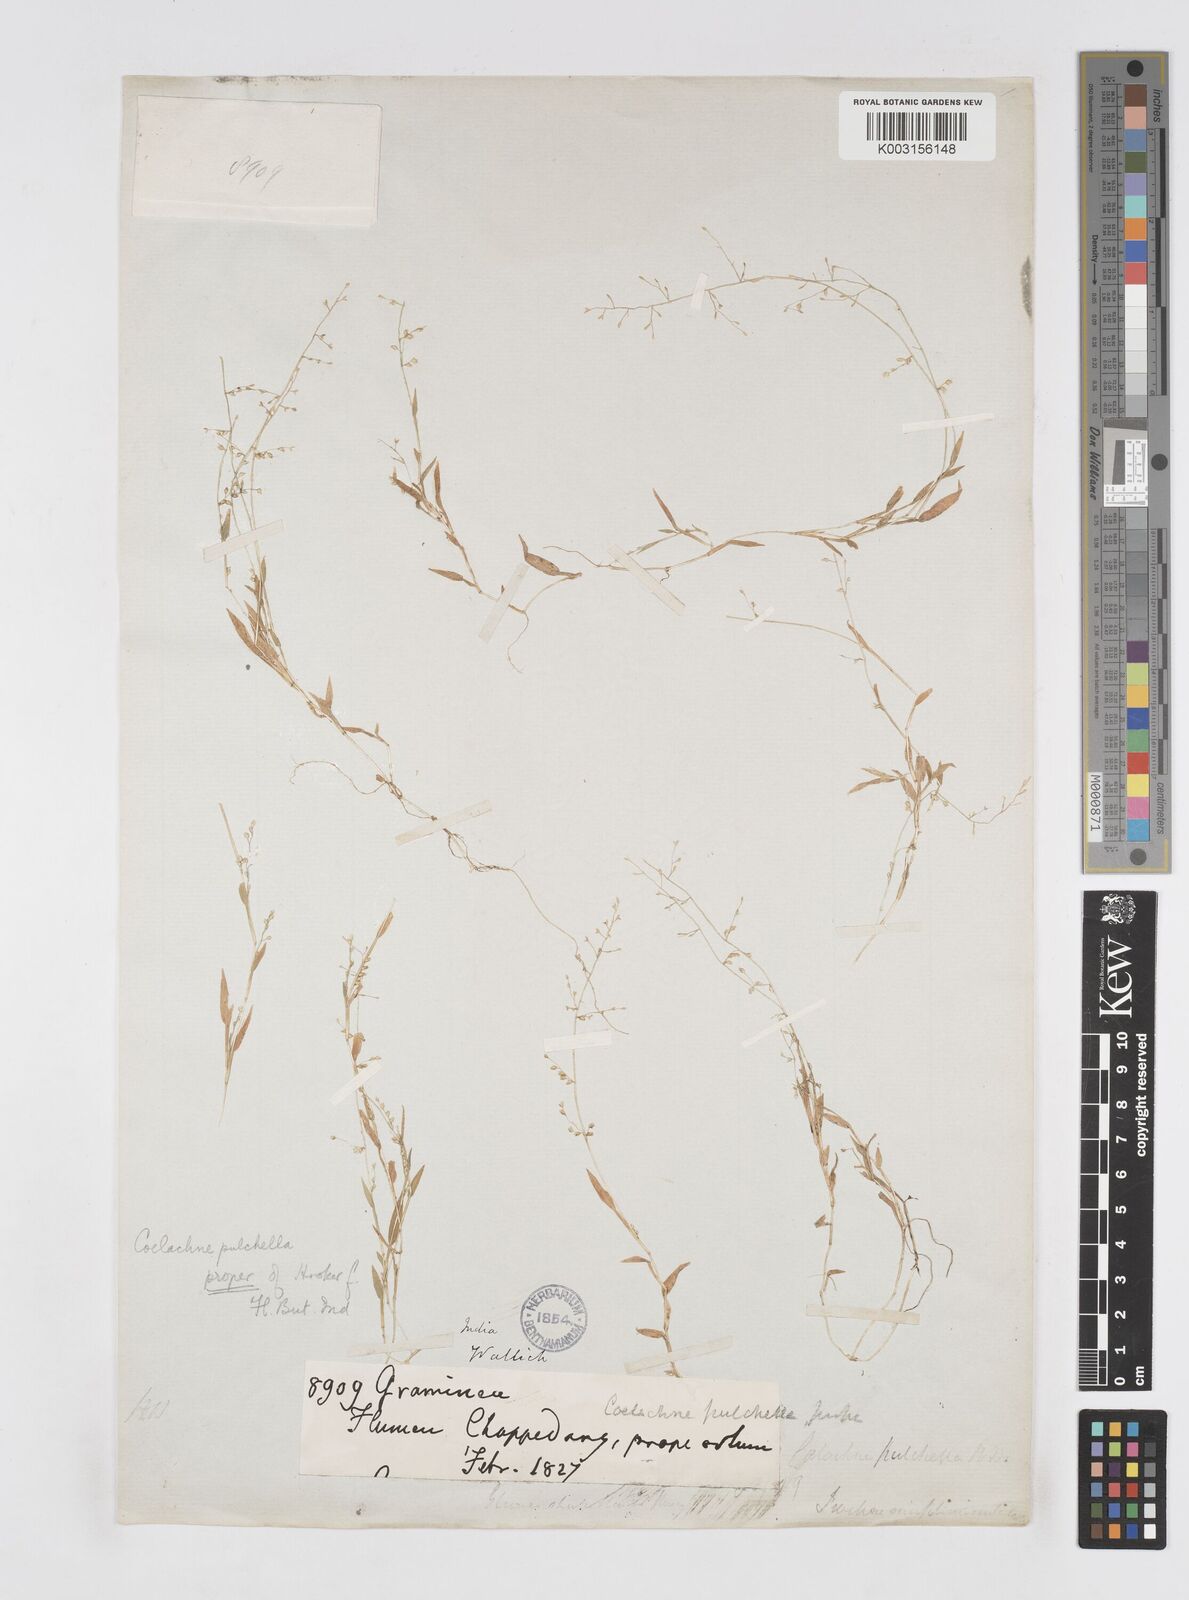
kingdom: Plantae
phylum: Tracheophyta
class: Liliopsida
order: Poales
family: Poaceae
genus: Coelachne
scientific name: Coelachne
